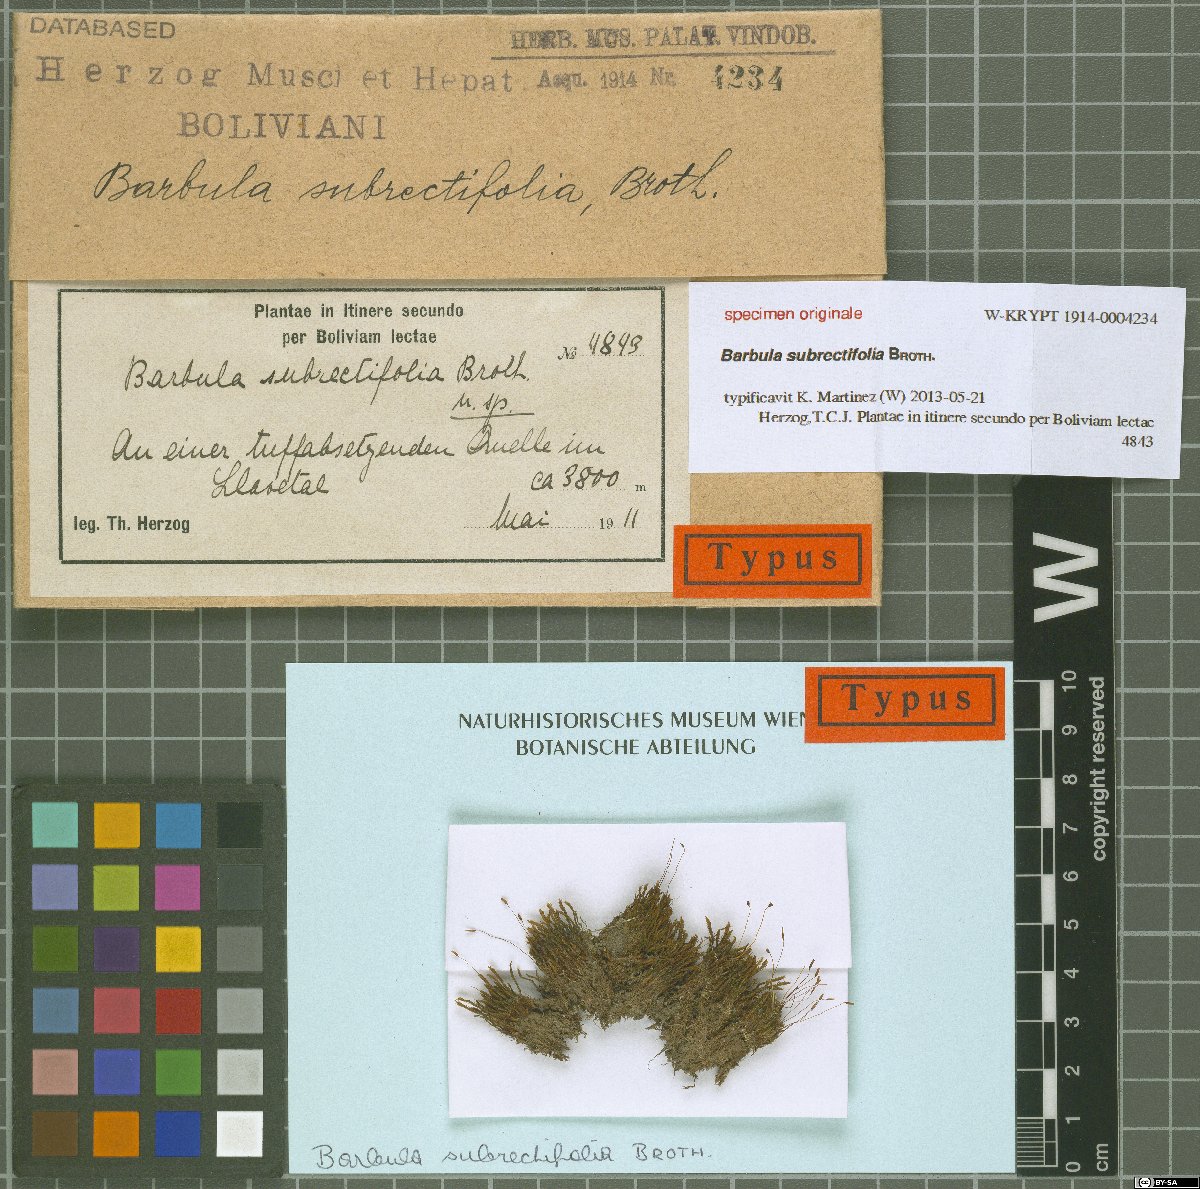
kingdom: Plantae
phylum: Bryophyta
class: Bryopsida
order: Pottiales
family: Pottiaceae
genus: Barbula
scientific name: Barbula
